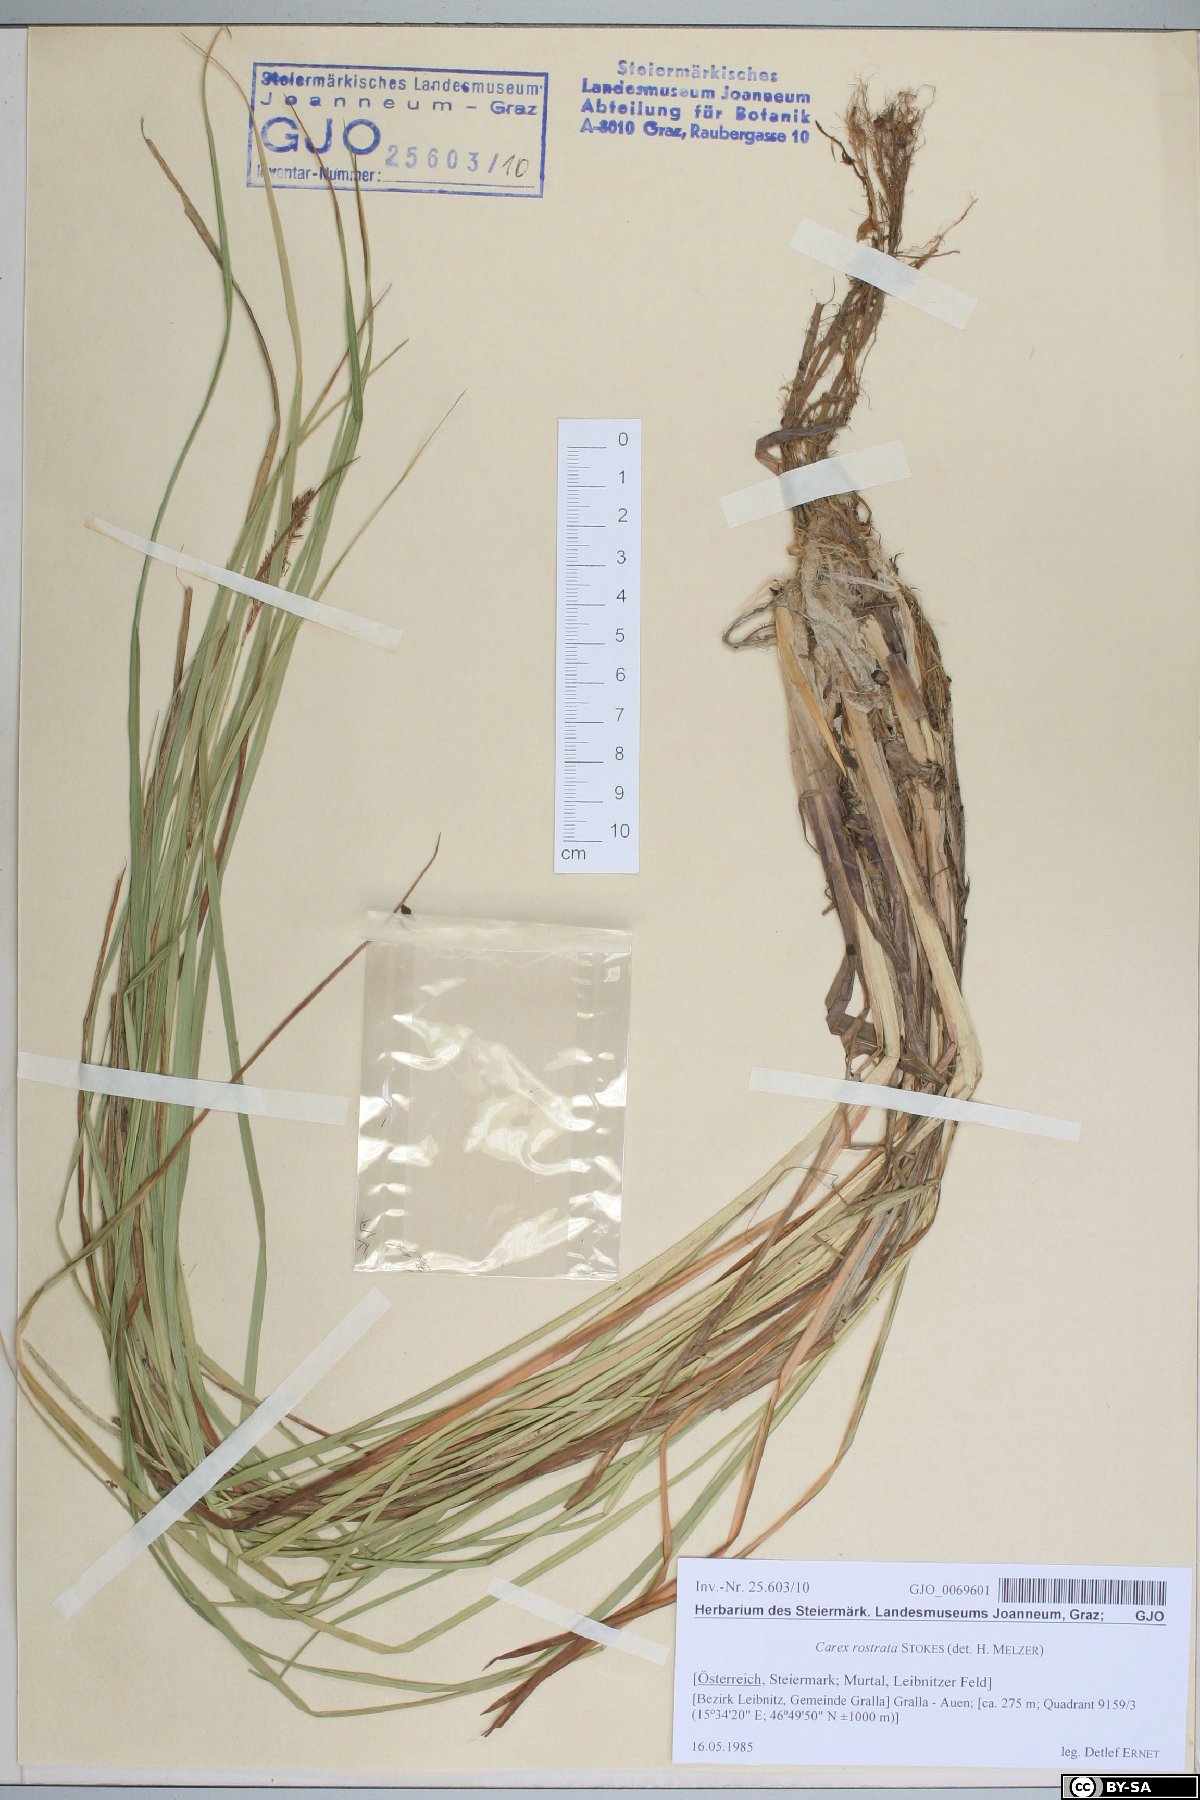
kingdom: Plantae
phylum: Tracheophyta
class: Liliopsida
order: Poales
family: Cyperaceae
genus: Carex
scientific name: Carex rostrata
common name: Bottle sedge
